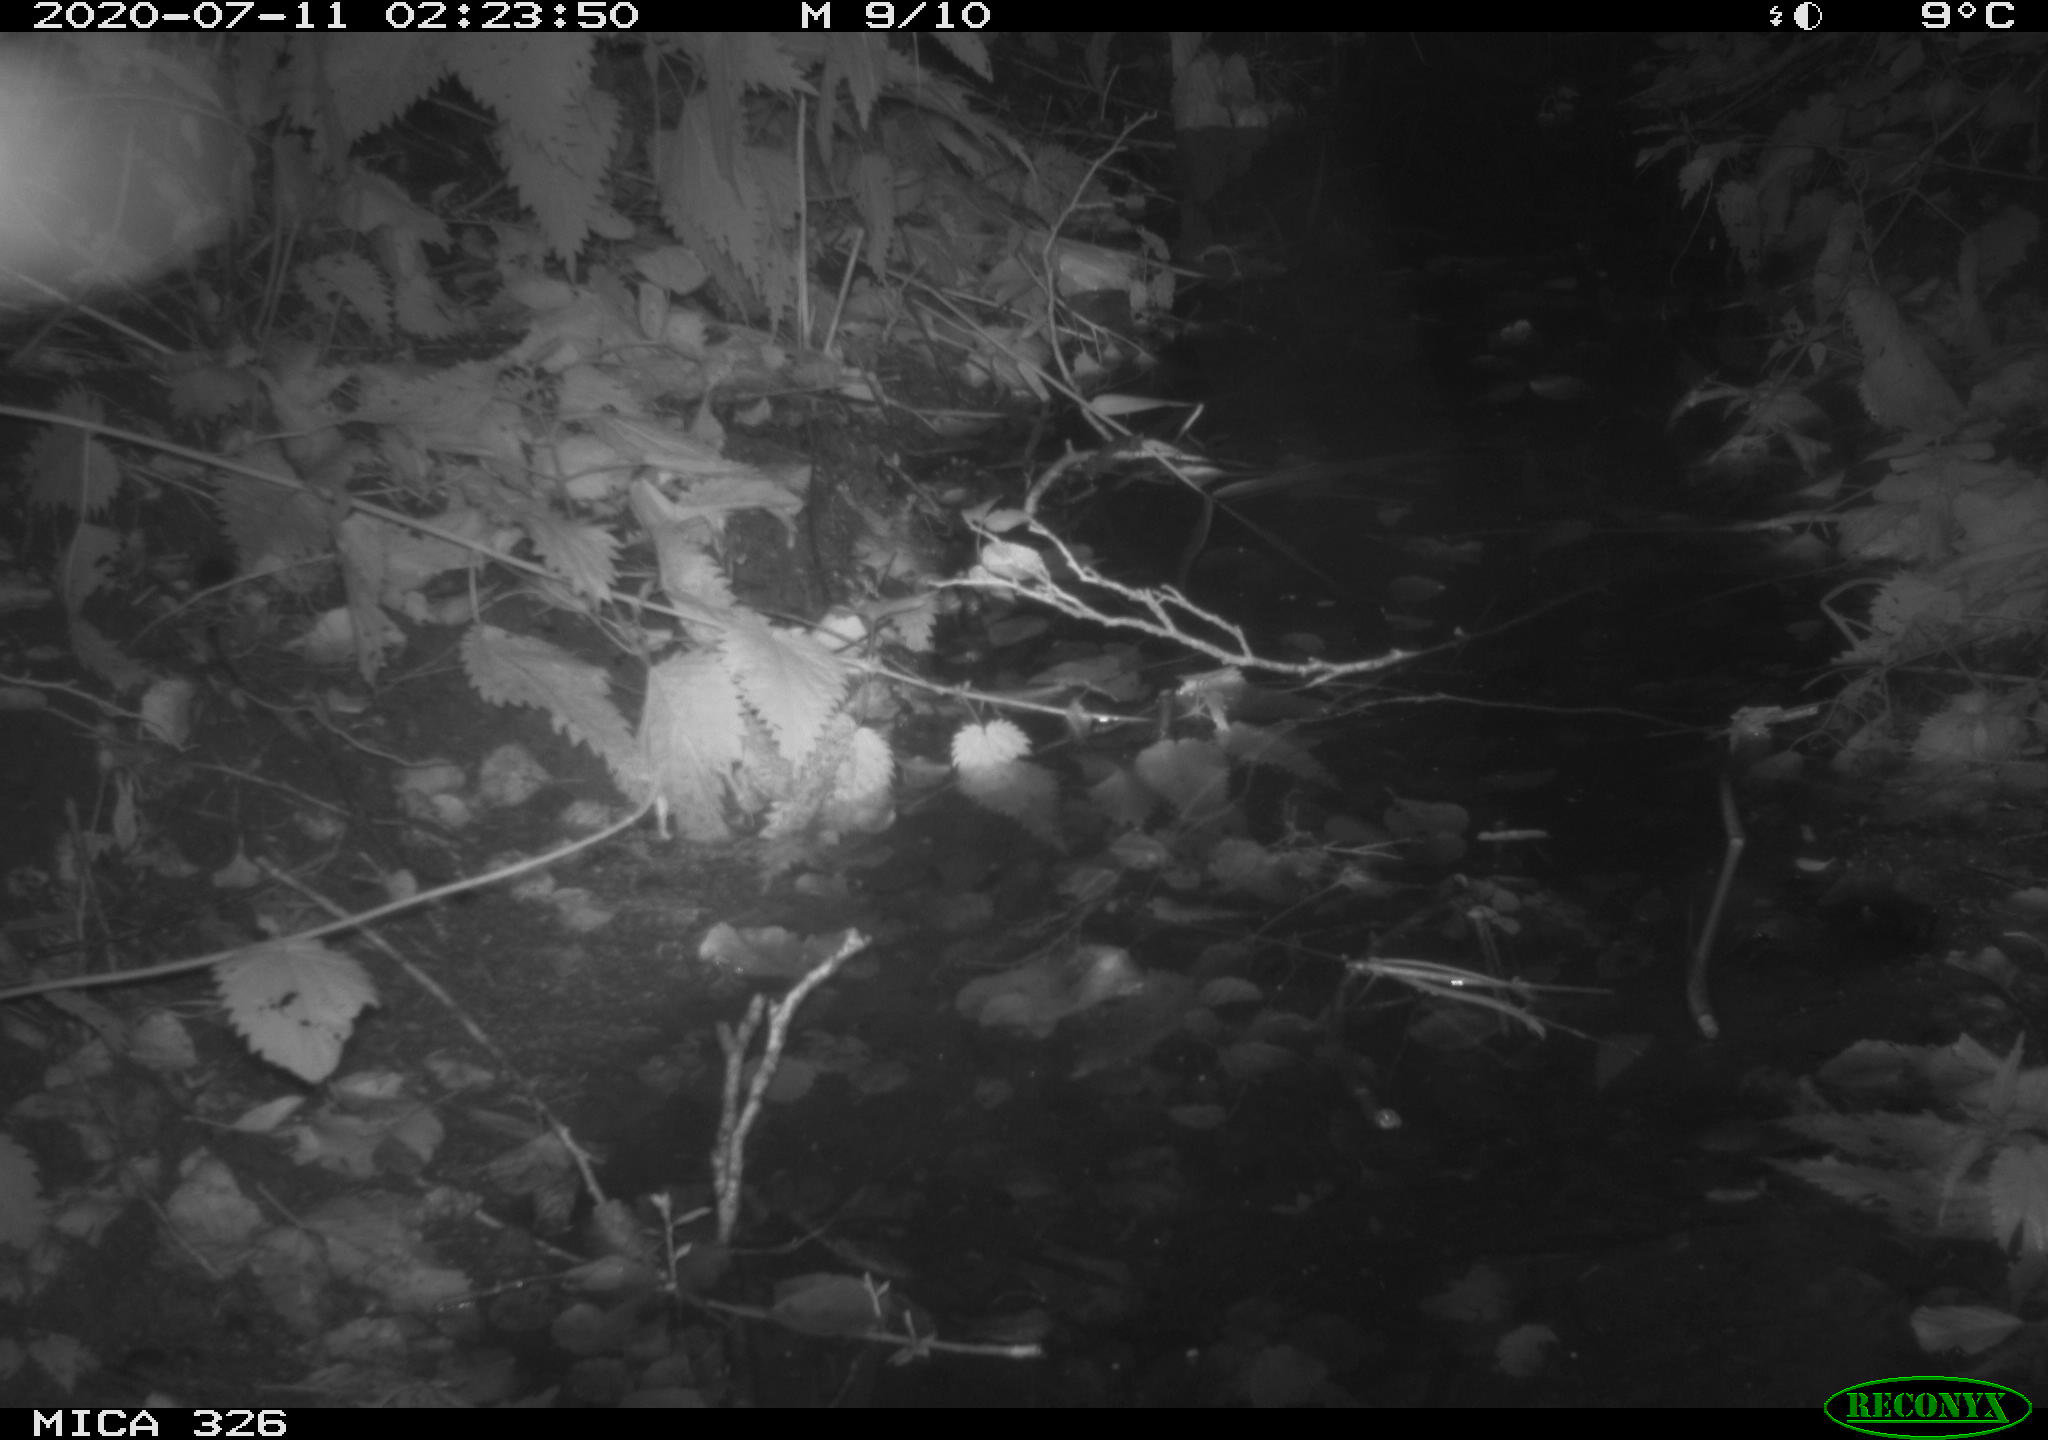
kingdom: Animalia
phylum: Chordata
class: Mammalia
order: Rodentia
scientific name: Rodentia
